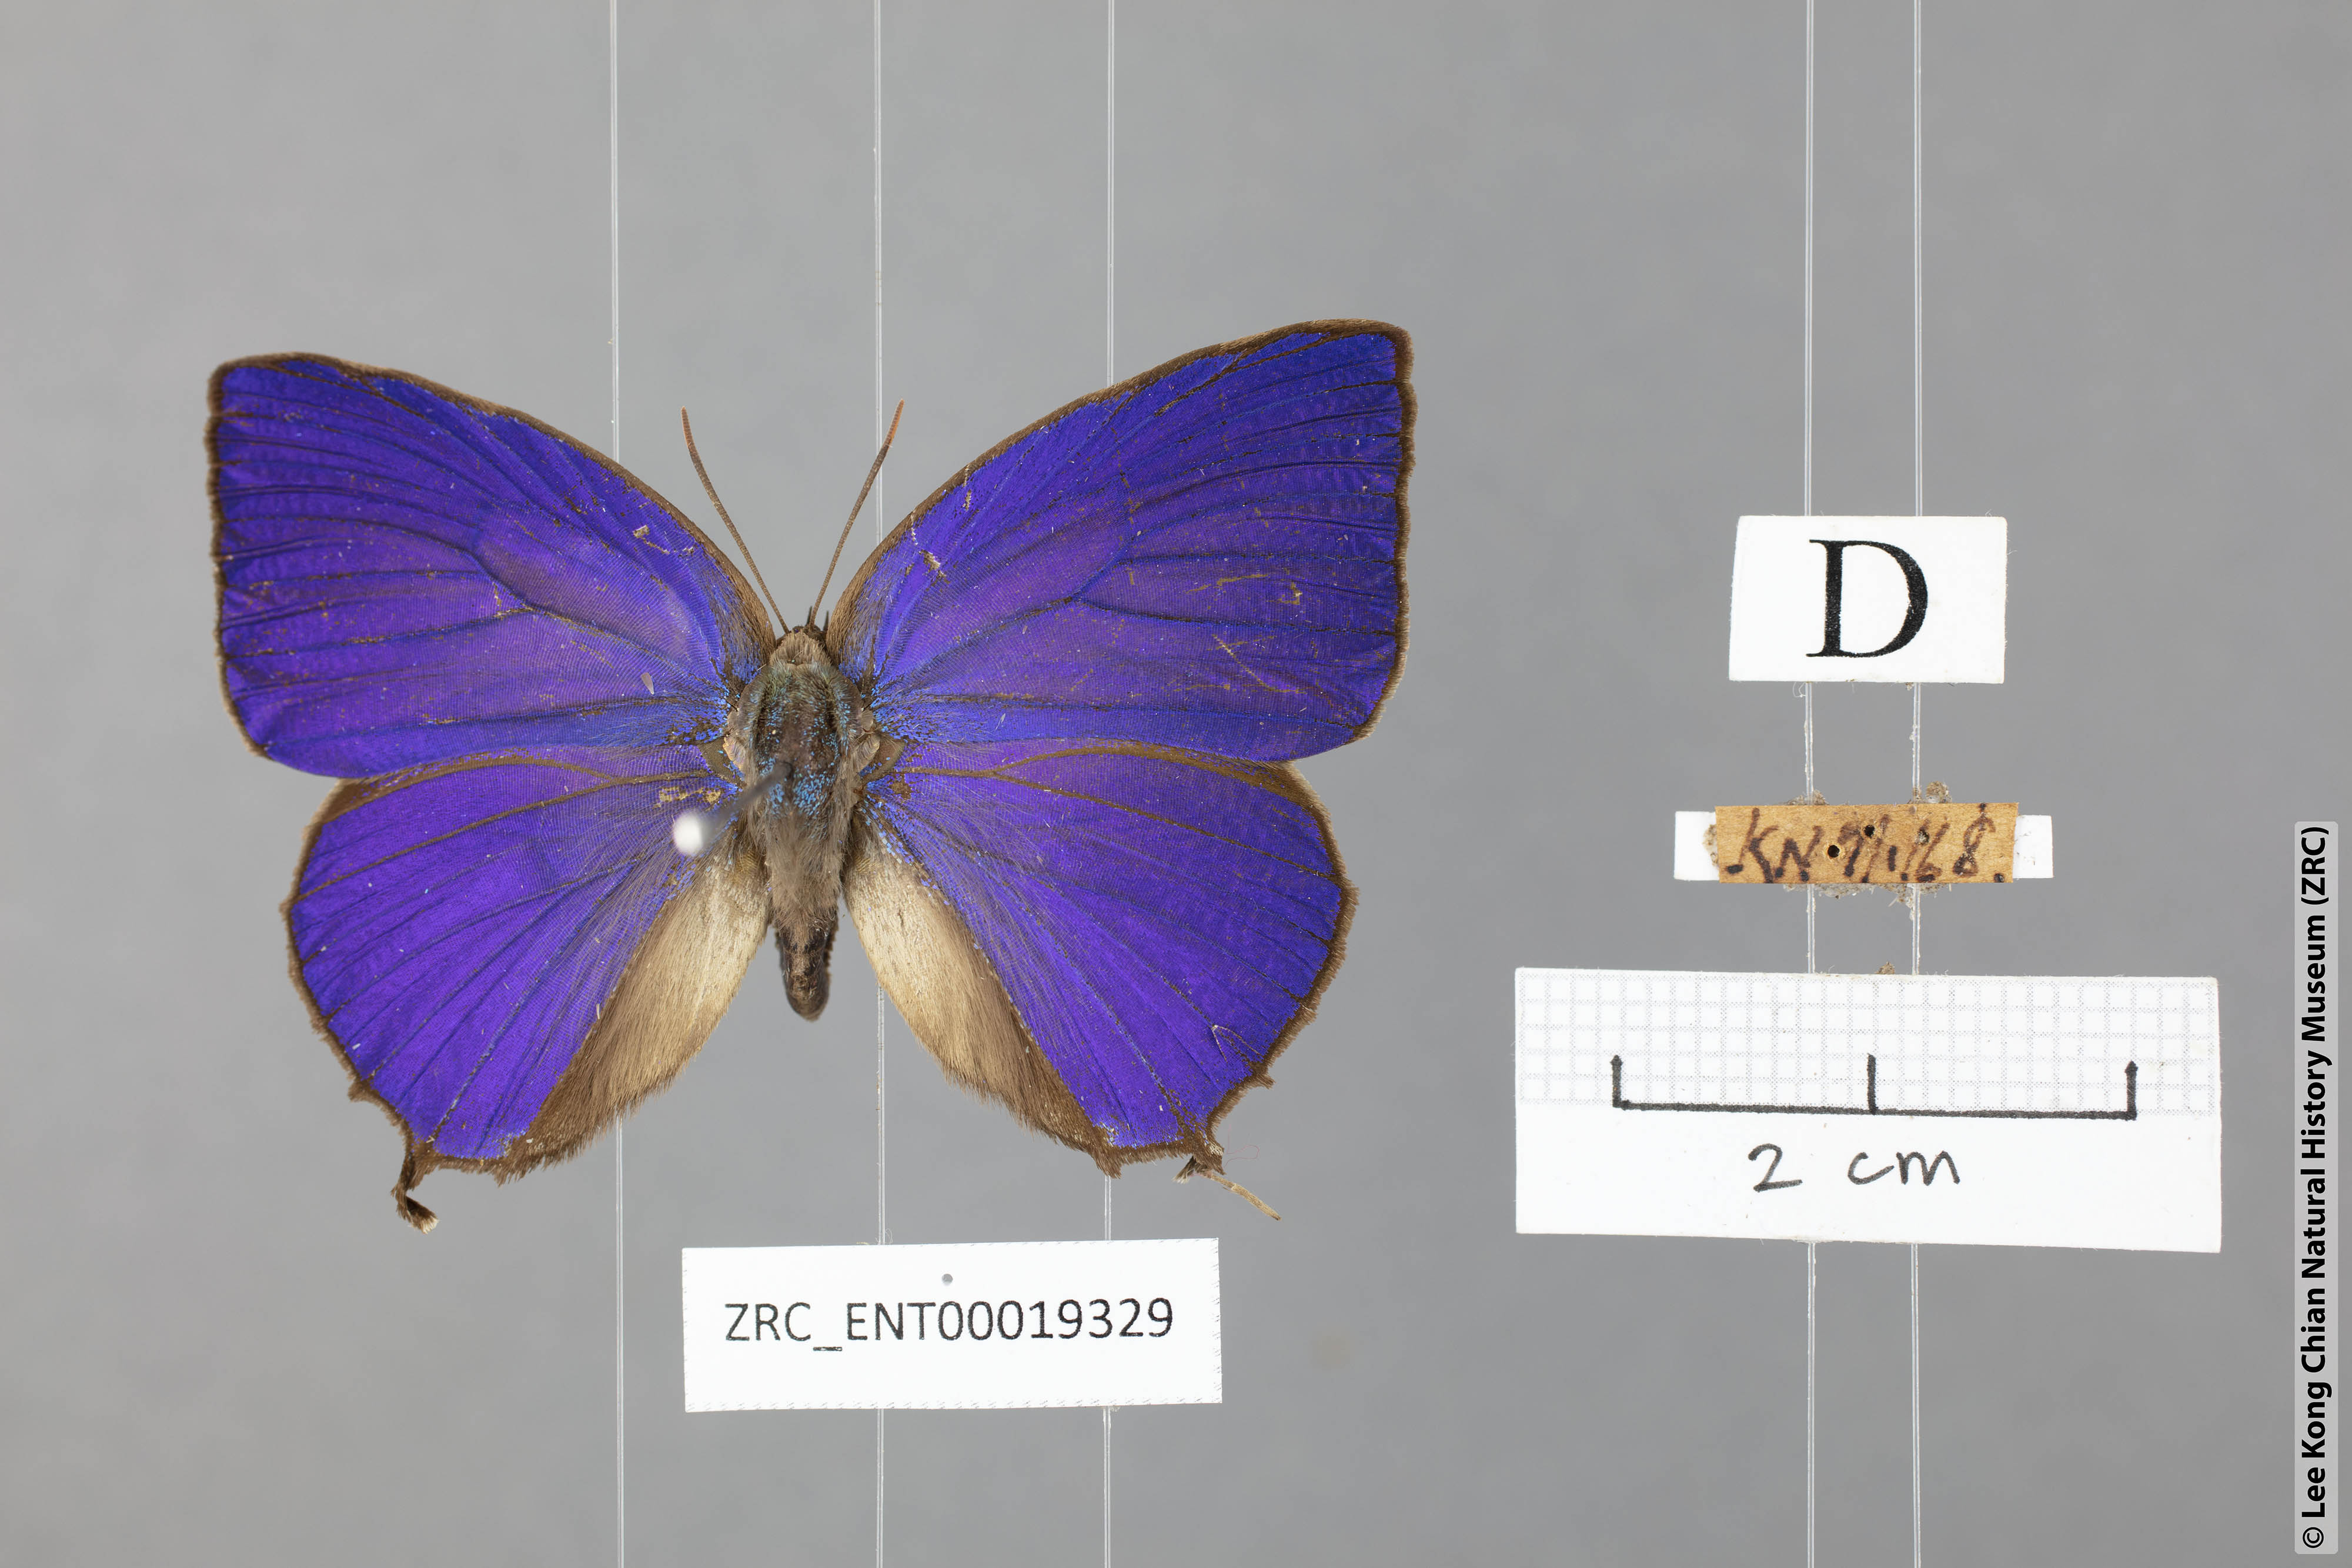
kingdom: Animalia
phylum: Arthropoda
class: Insecta
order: Lepidoptera
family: Lycaenidae
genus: Arhopala
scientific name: Arhopala centaurus
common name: Dull oak-blue
